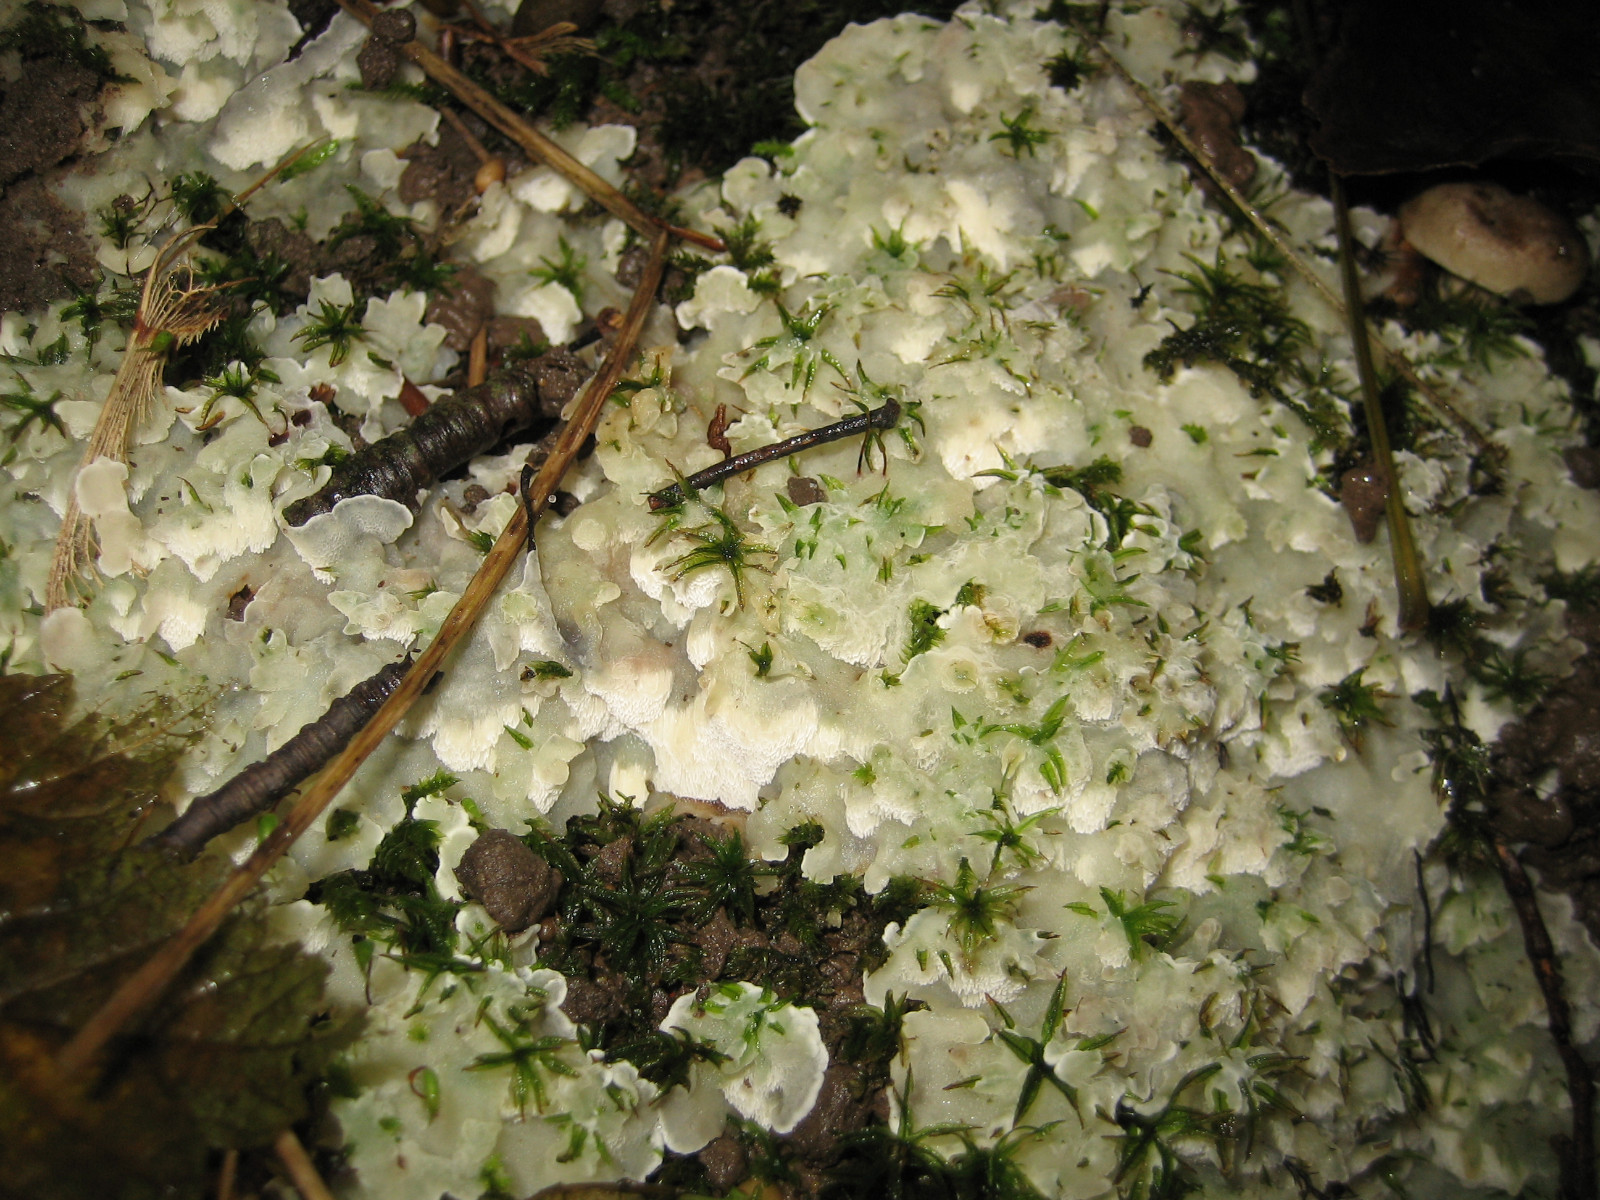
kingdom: Fungi
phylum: Basidiomycota
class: Agaricomycetes
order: Polyporales
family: Meruliaceae
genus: Physisporinus
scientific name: Physisporinus vitreus
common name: mastesvamp
